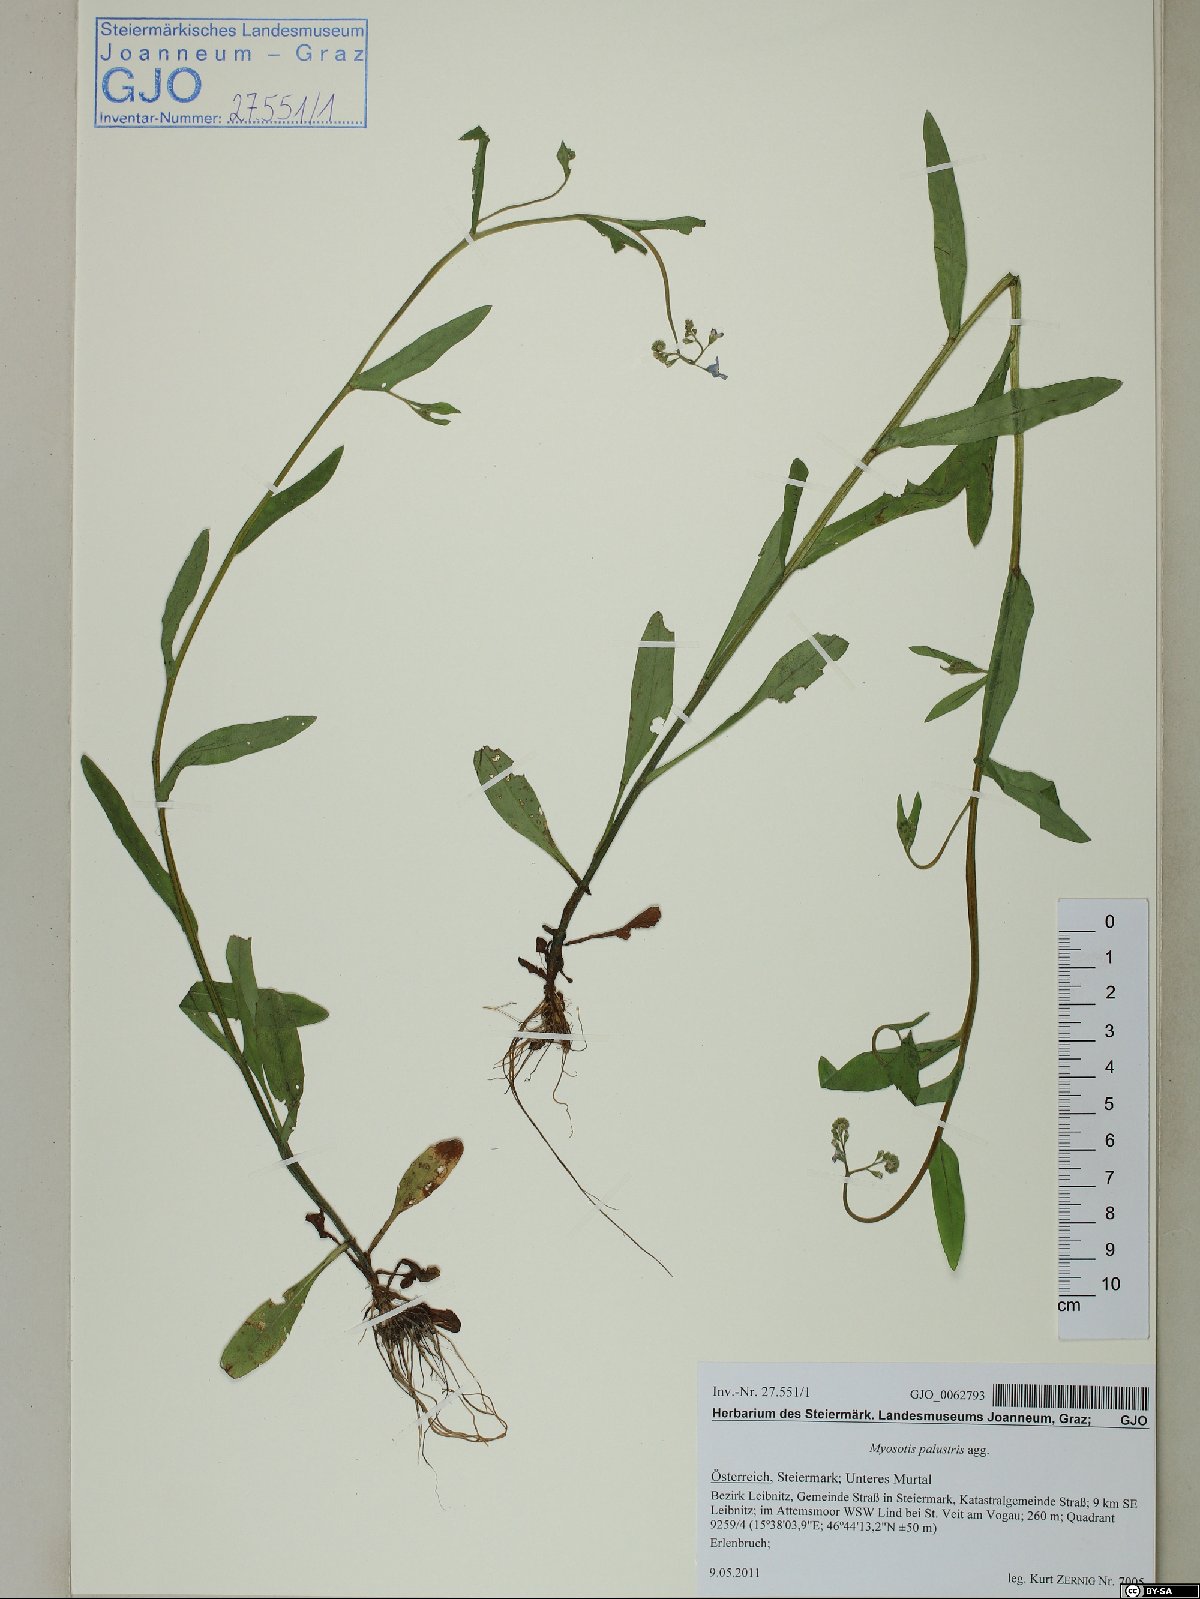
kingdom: Plantae
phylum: Tracheophyta
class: Magnoliopsida
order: Boraginales
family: Boraginaceae
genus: Myosotis
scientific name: Myosotis scorpioides
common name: Water forget-me-not
